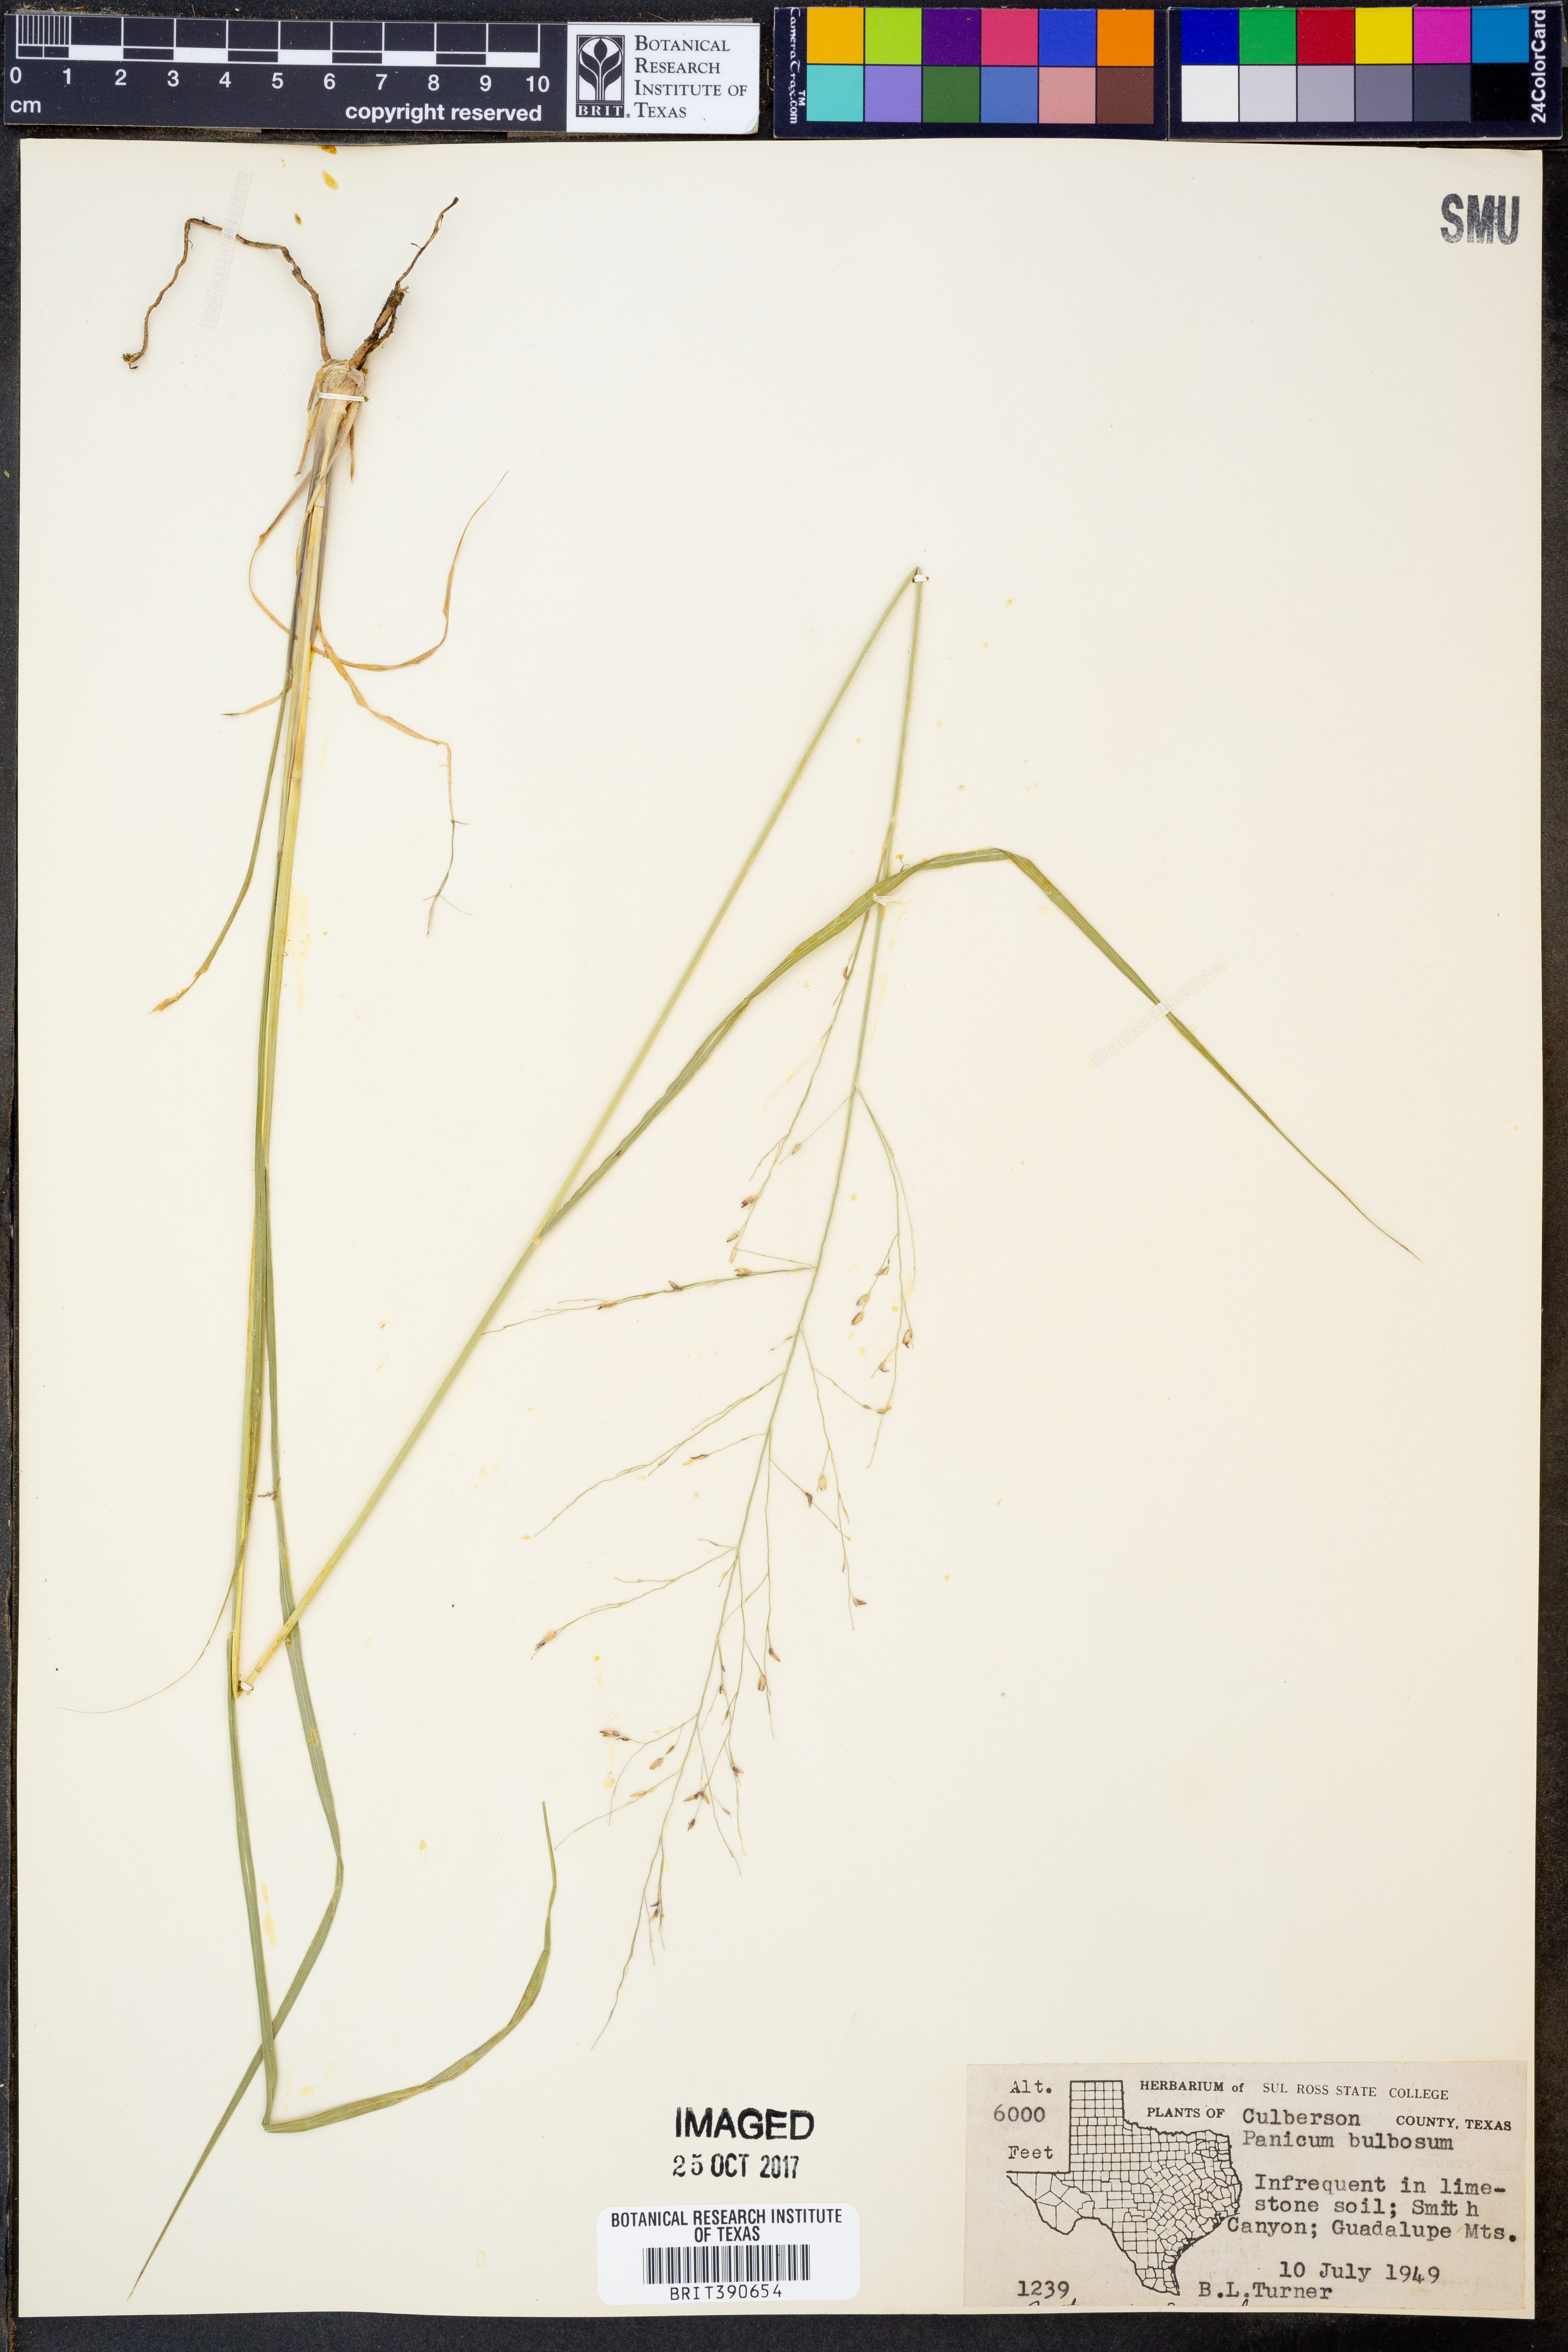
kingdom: Plantae
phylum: Tracheophyta
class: Liliopsida
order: Poales
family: Poaceae
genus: Zuloagaea
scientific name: Zuloagaea bulbosa
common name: Canyon panic grass
